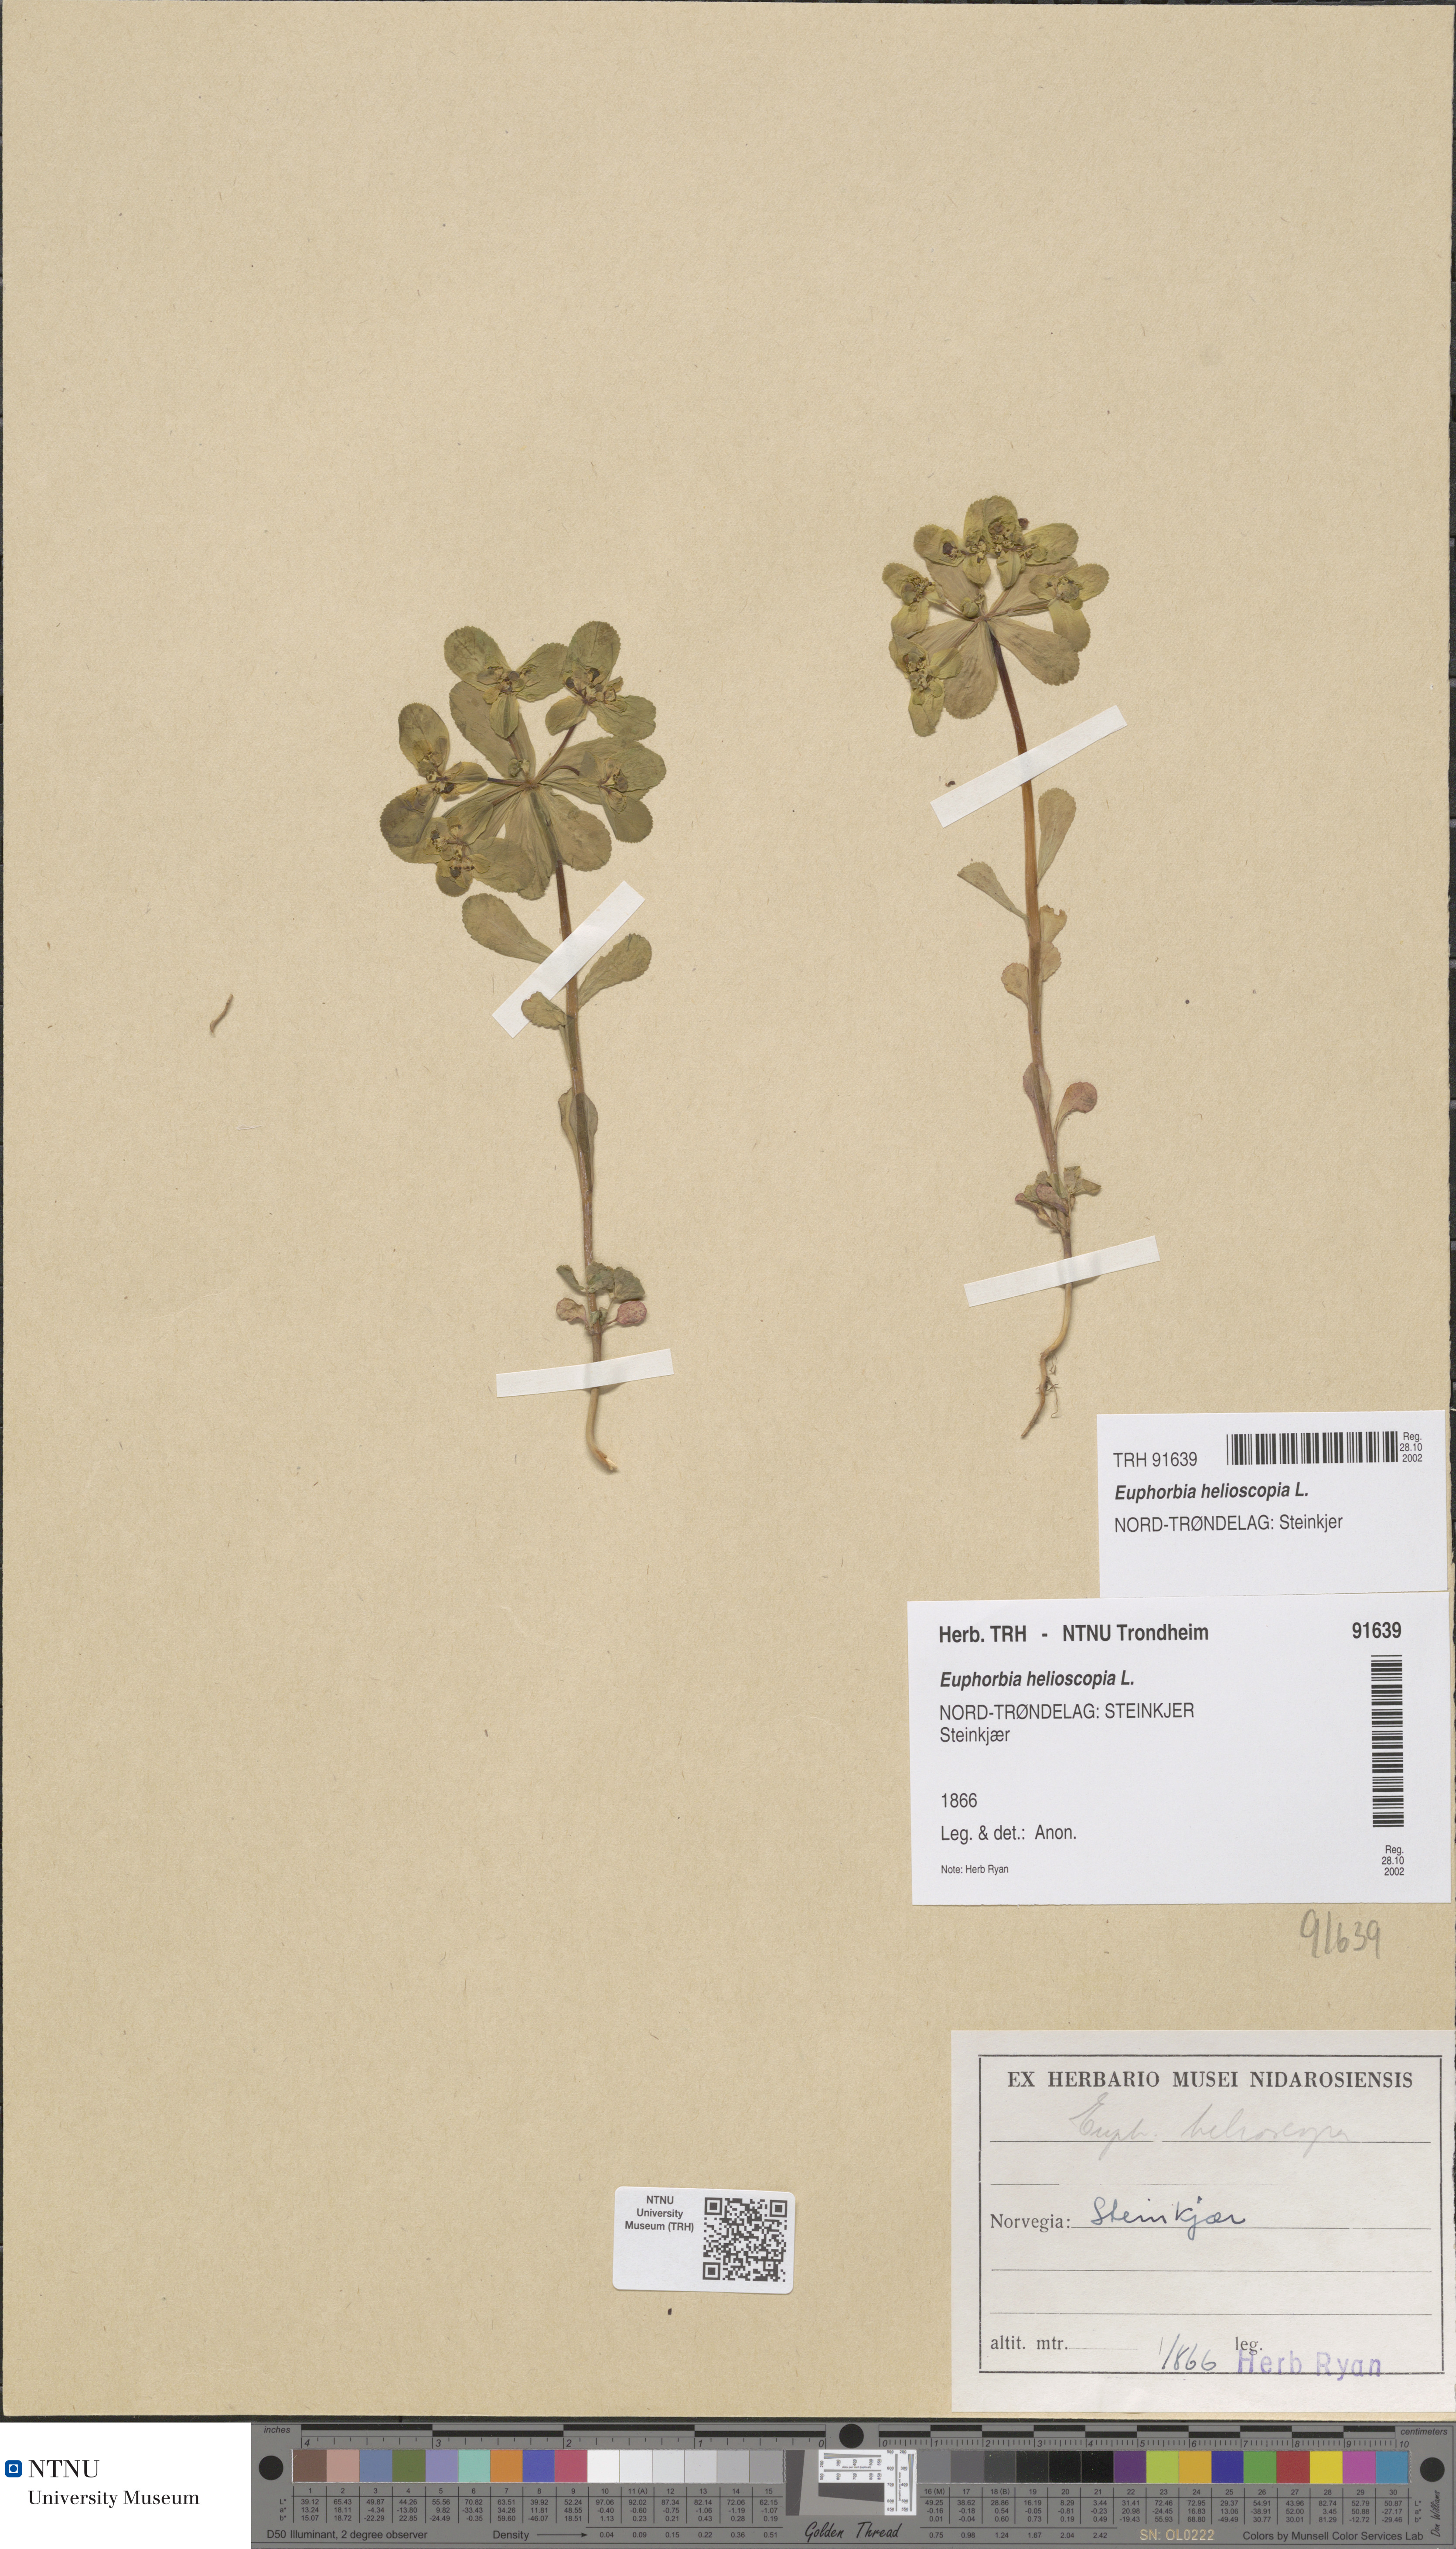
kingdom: Plantae
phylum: Tracheophyta
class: Magnoliopsida
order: Malpighiales
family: Euphorbiaceae
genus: Euphorbia
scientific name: Euphorbia helioscopia
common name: Sun spurge
